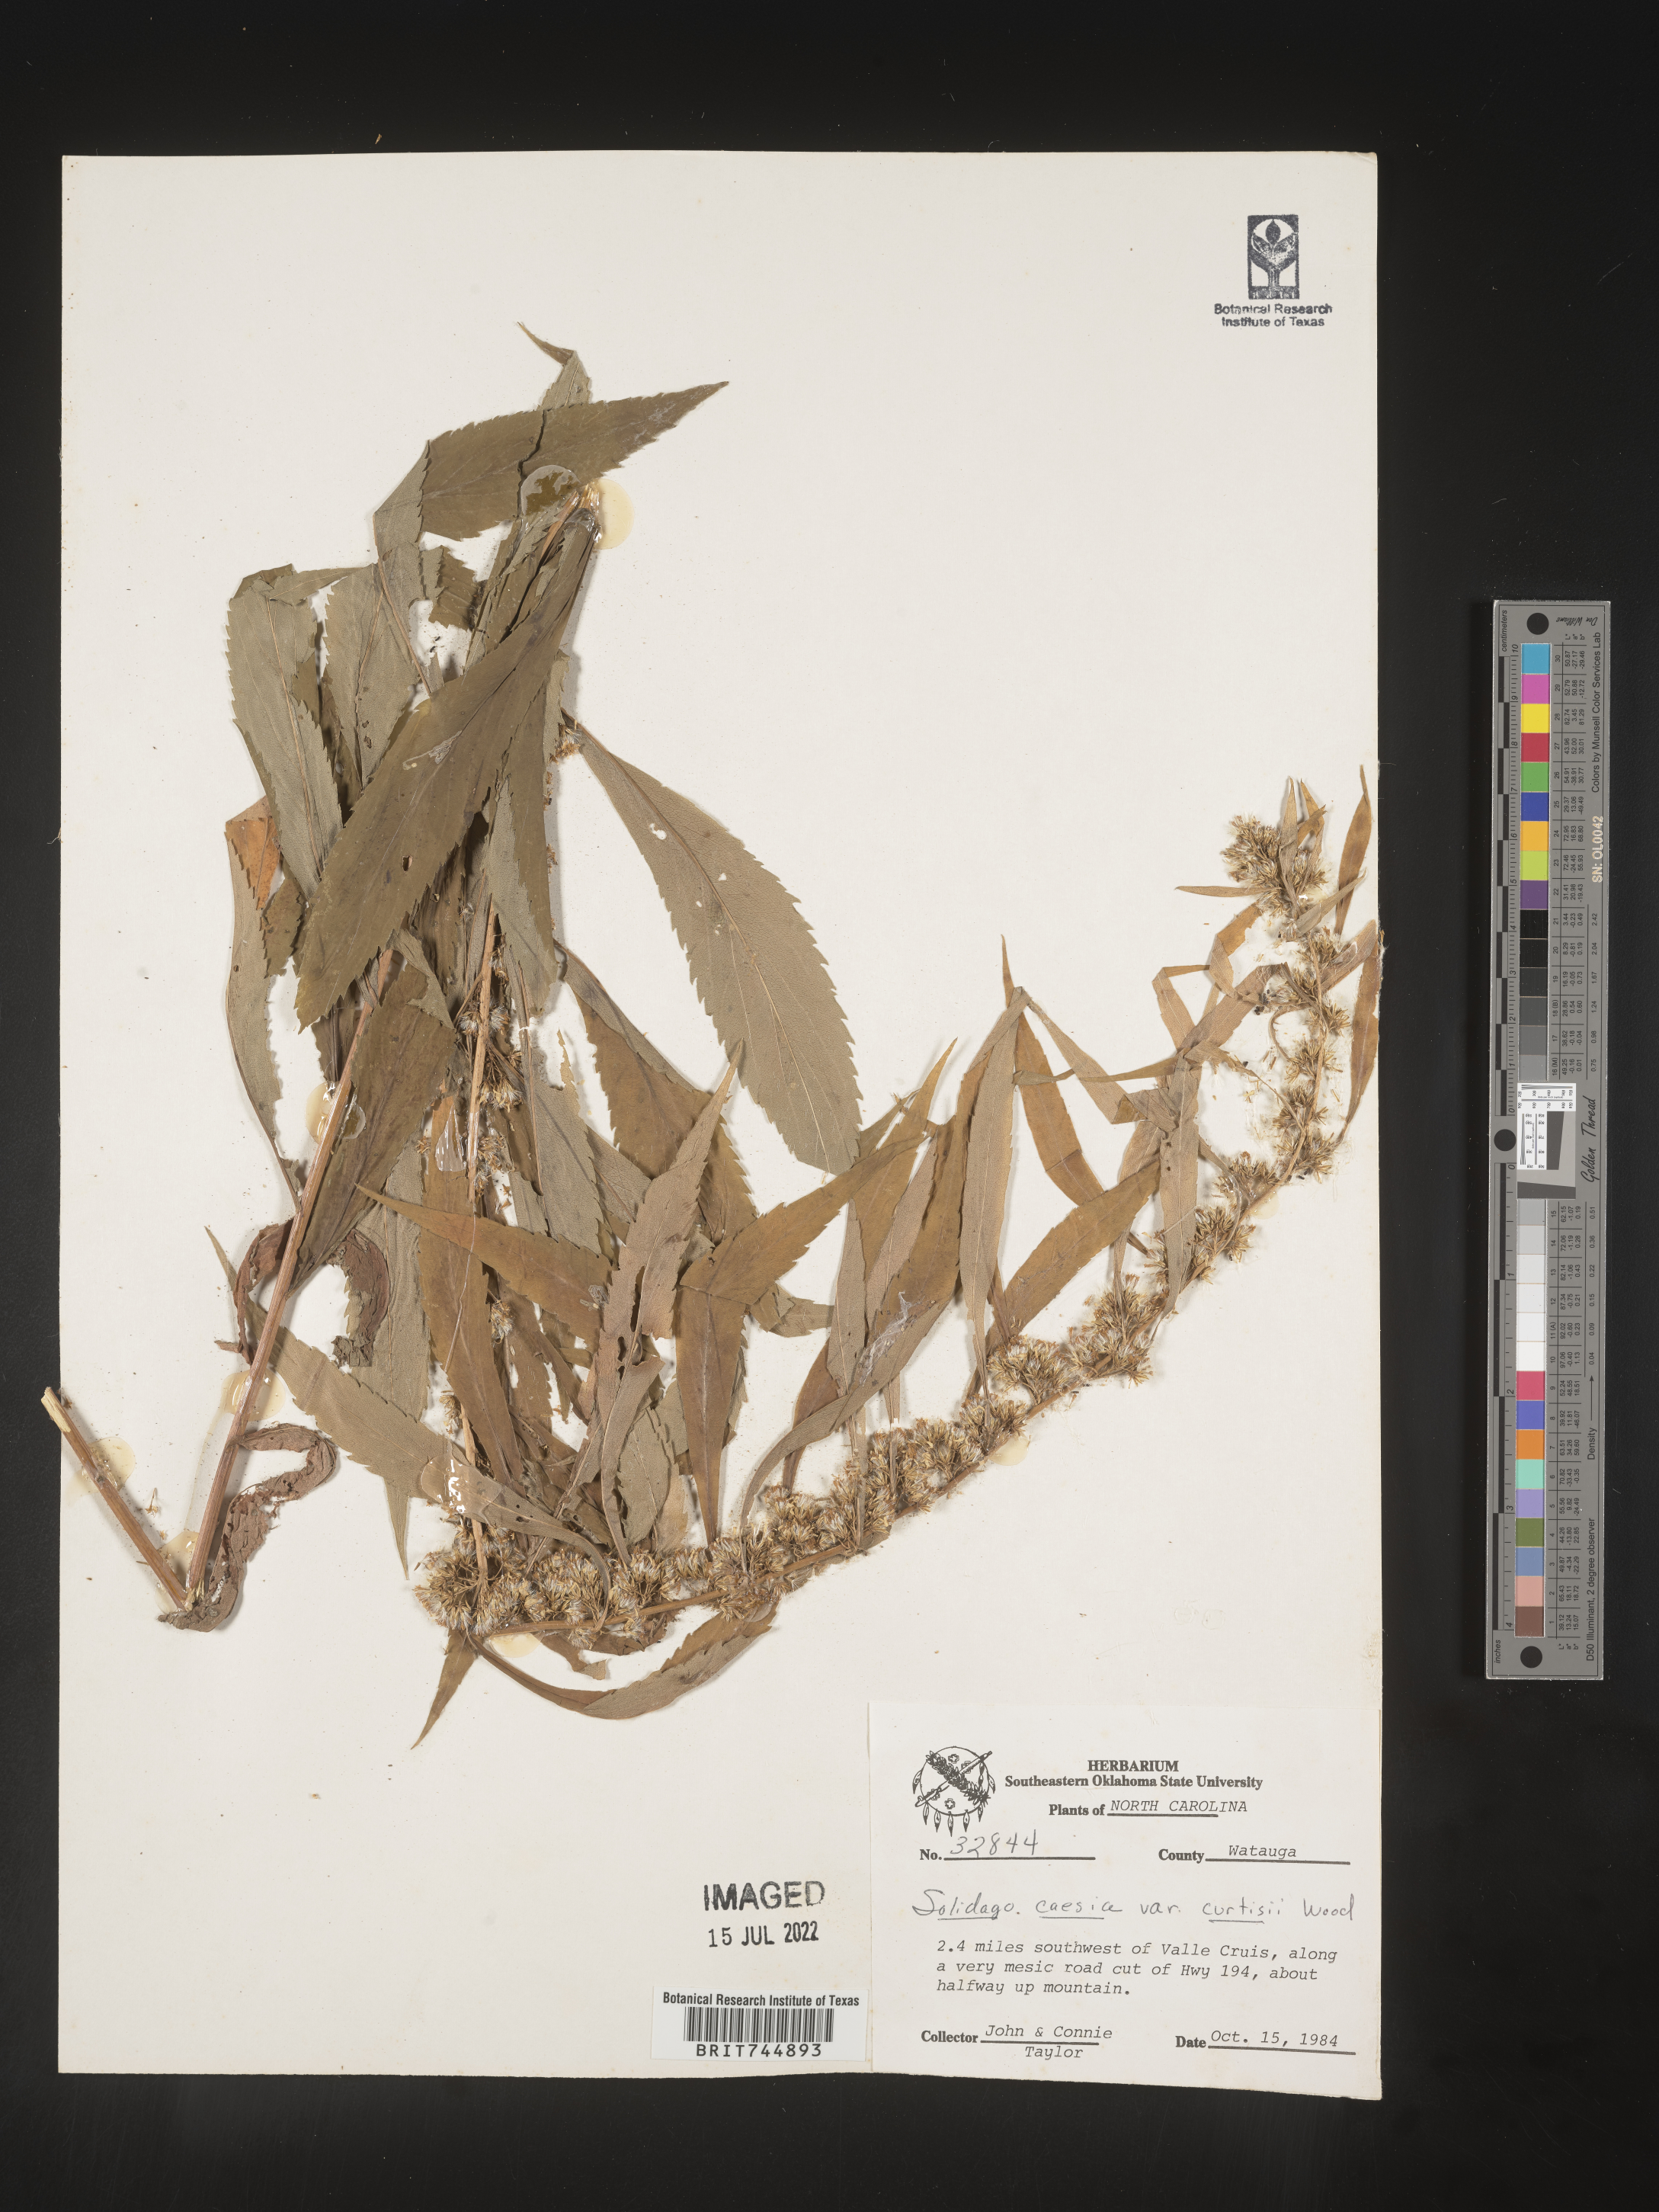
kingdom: Plantae
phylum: Tracheophyta
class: Magnoliopsida
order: Asterales
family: Asteraceae
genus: Solidago
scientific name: Solidago curtisii
